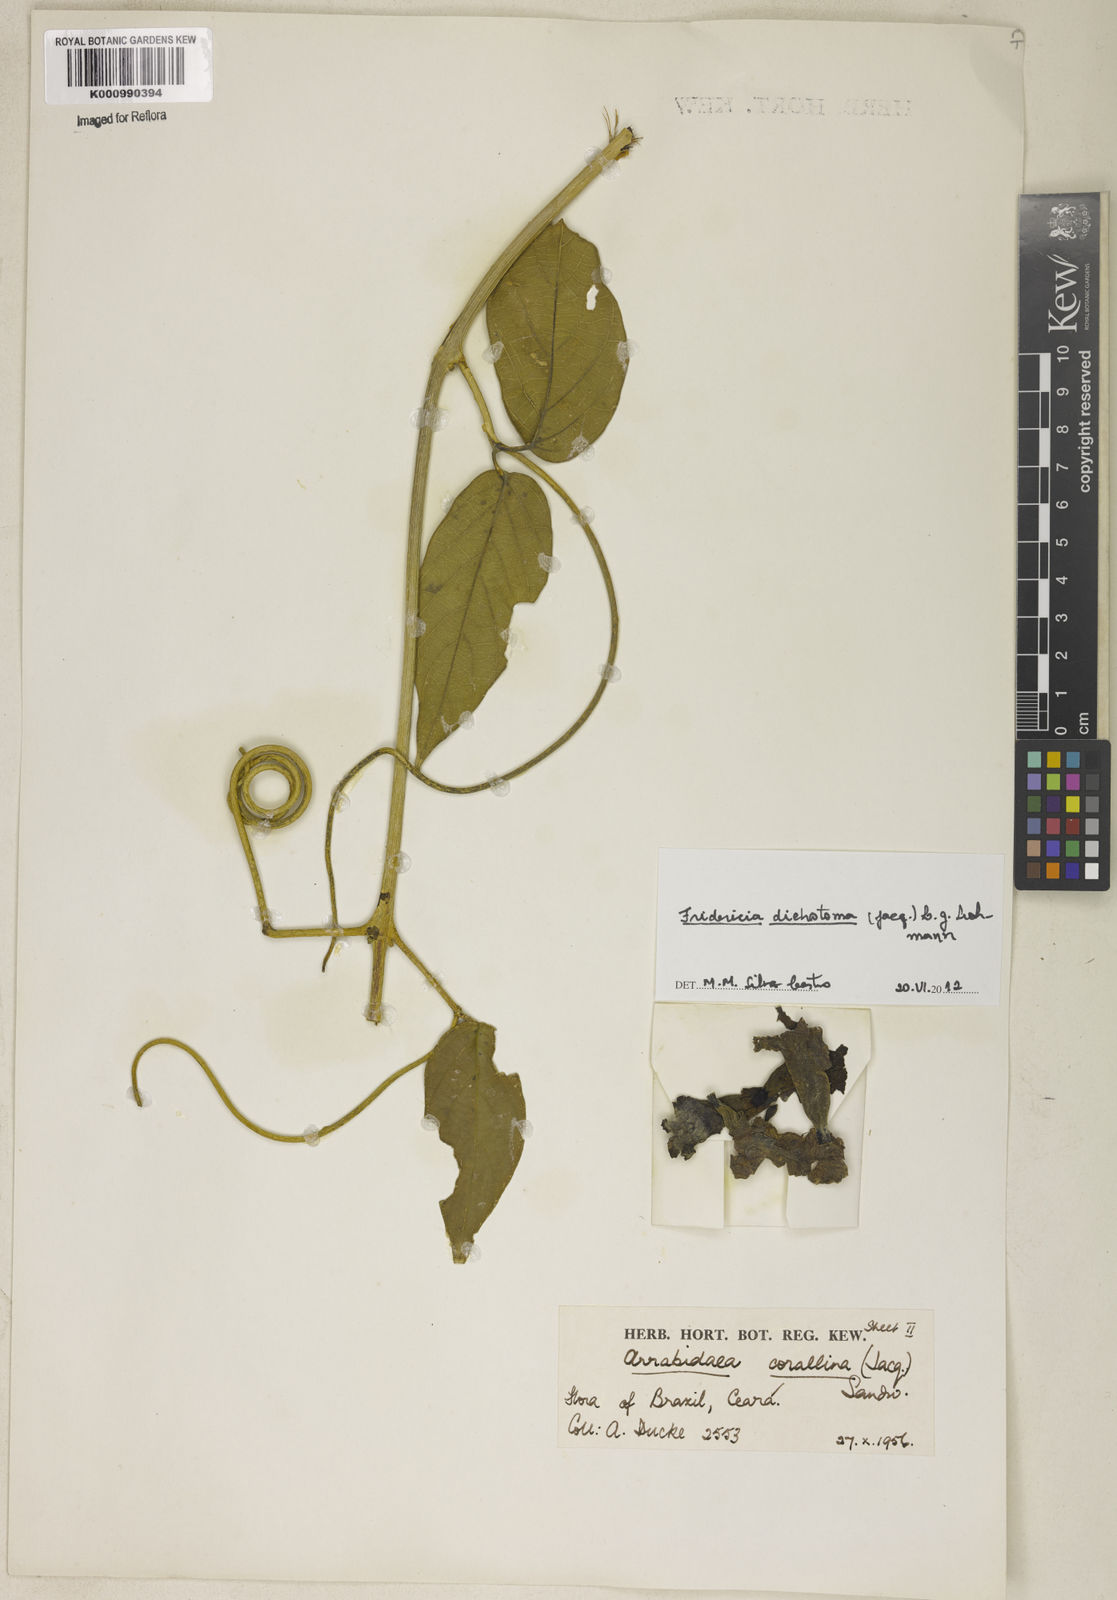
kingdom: Plantae
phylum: Tracheophyta
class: Magnoliopsida
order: Lamiales
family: Bignoniaceae
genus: Tanaecium
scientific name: Tanaecium dichotomum
